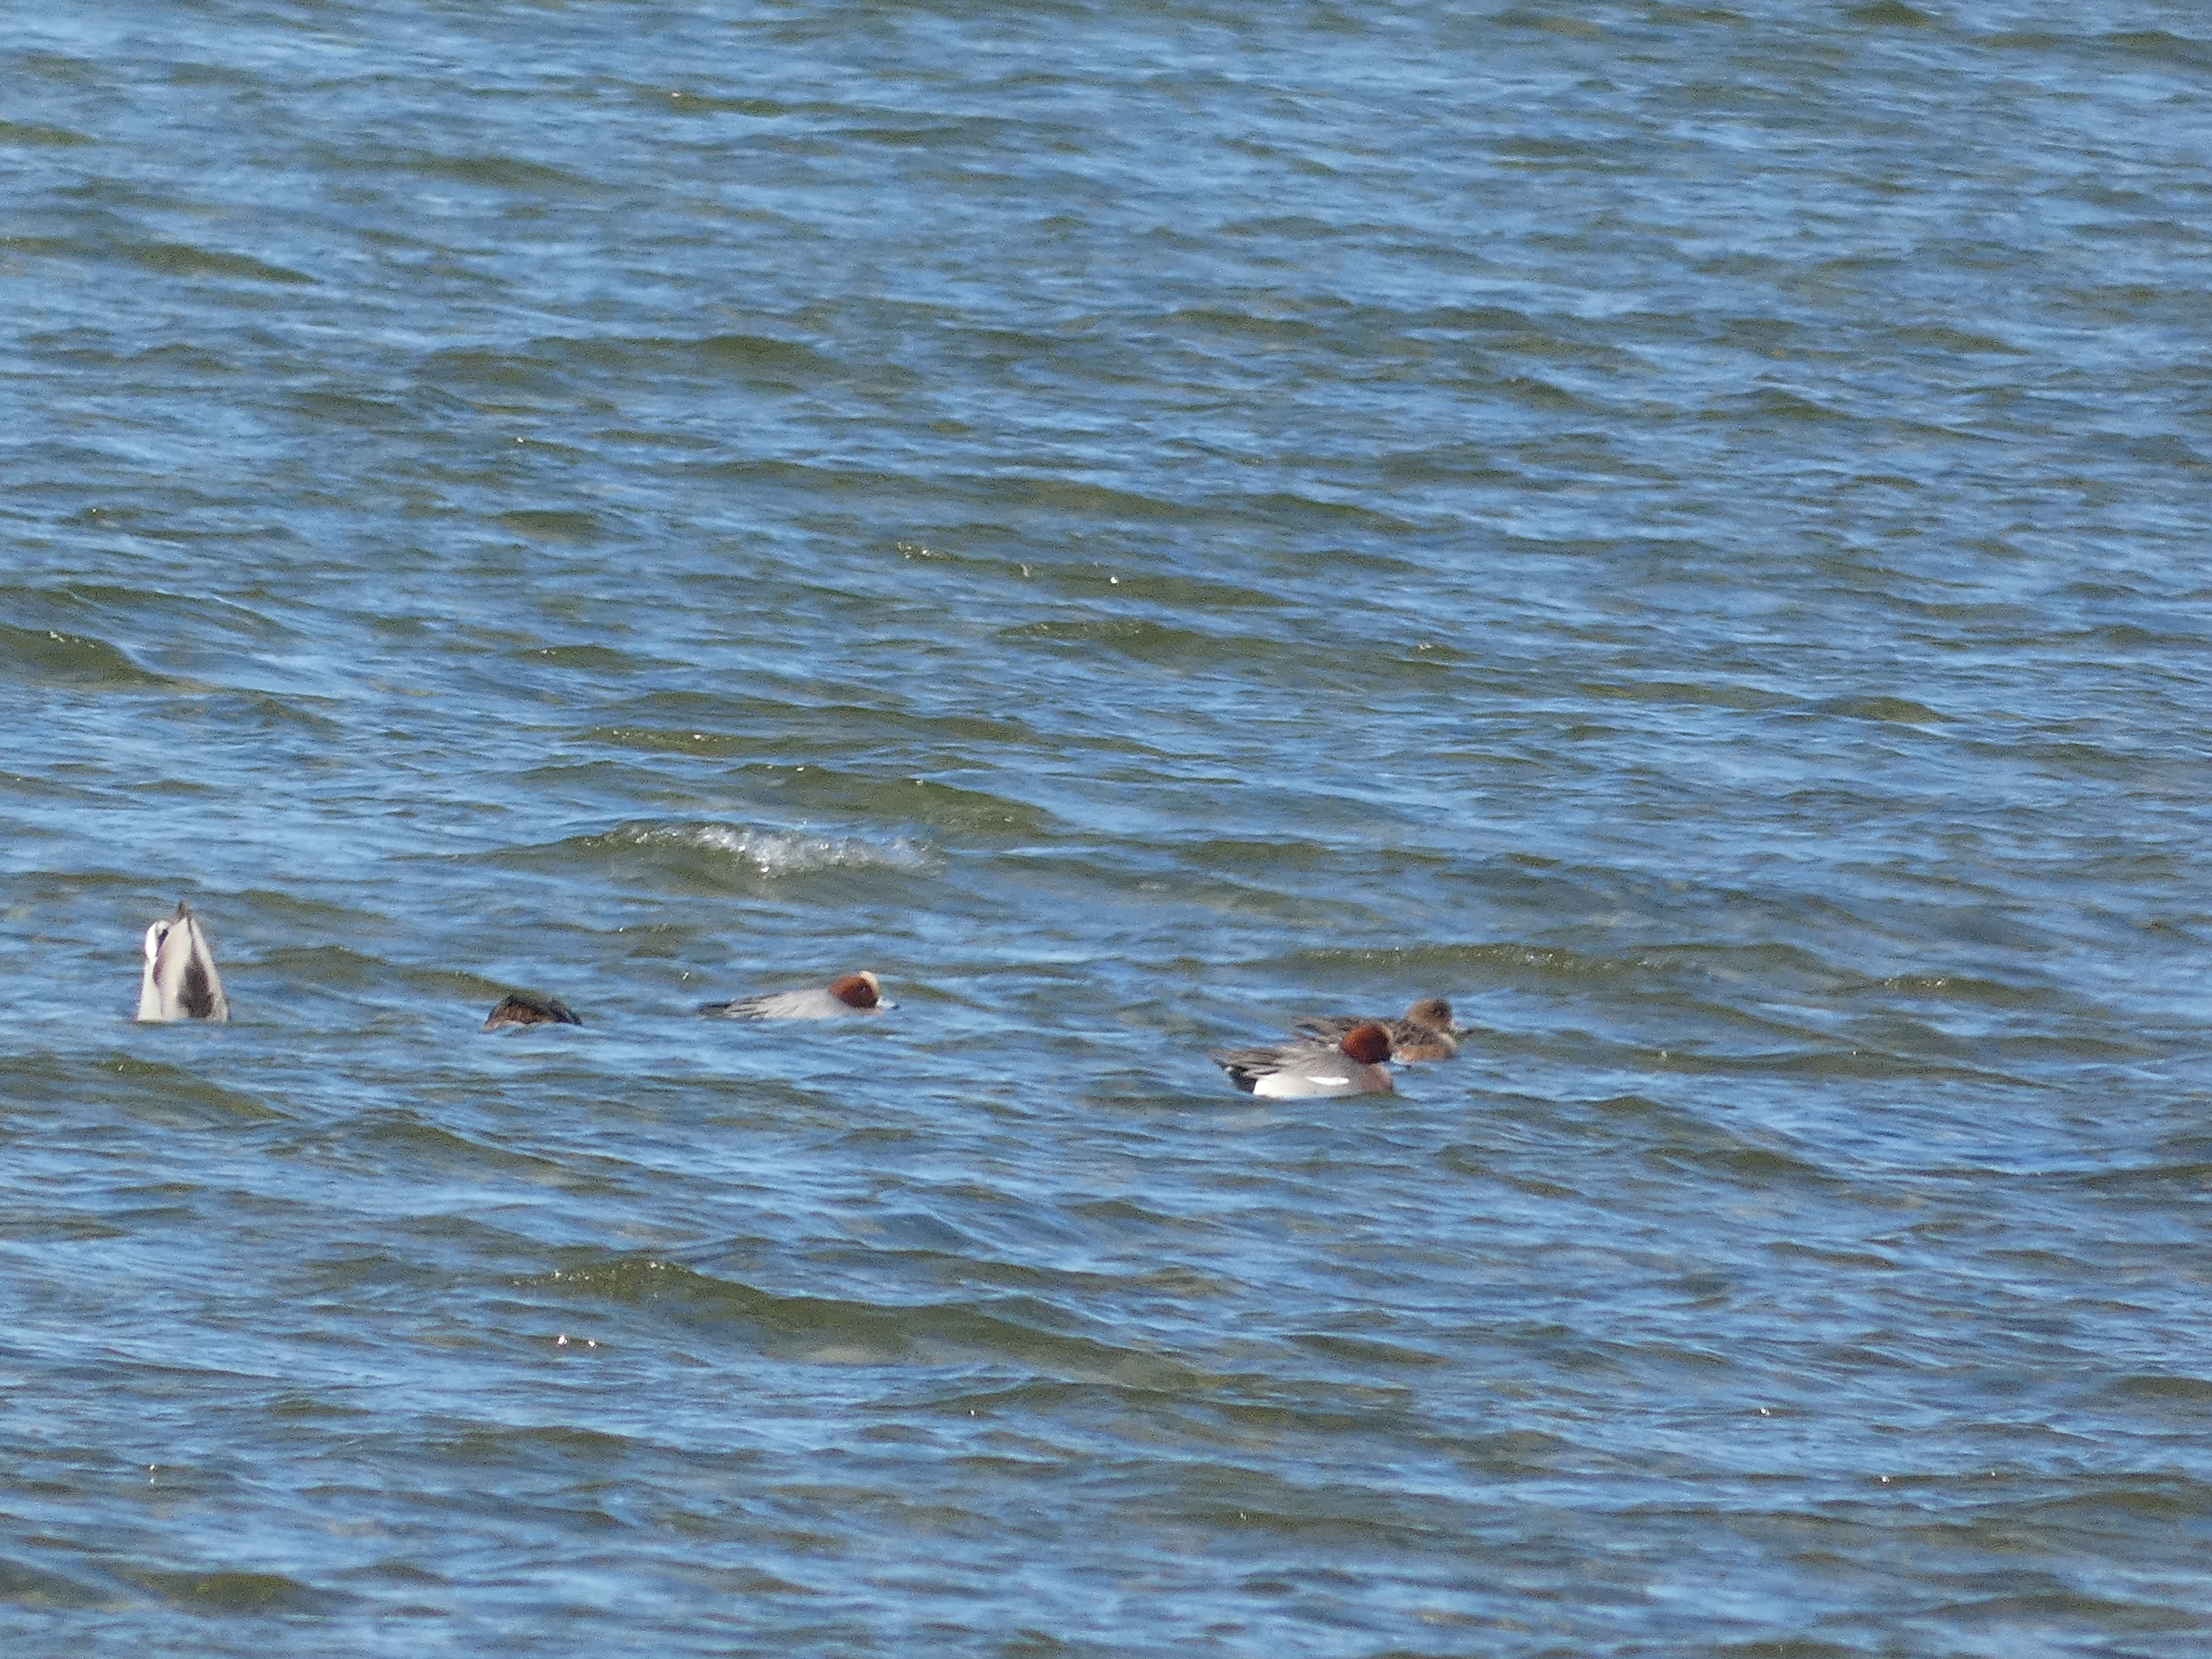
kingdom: Animalia
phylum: Chordata
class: Aves
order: Anseriformes
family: Anatidae
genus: Mareca
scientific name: Mareca penelope
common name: Pibeand
